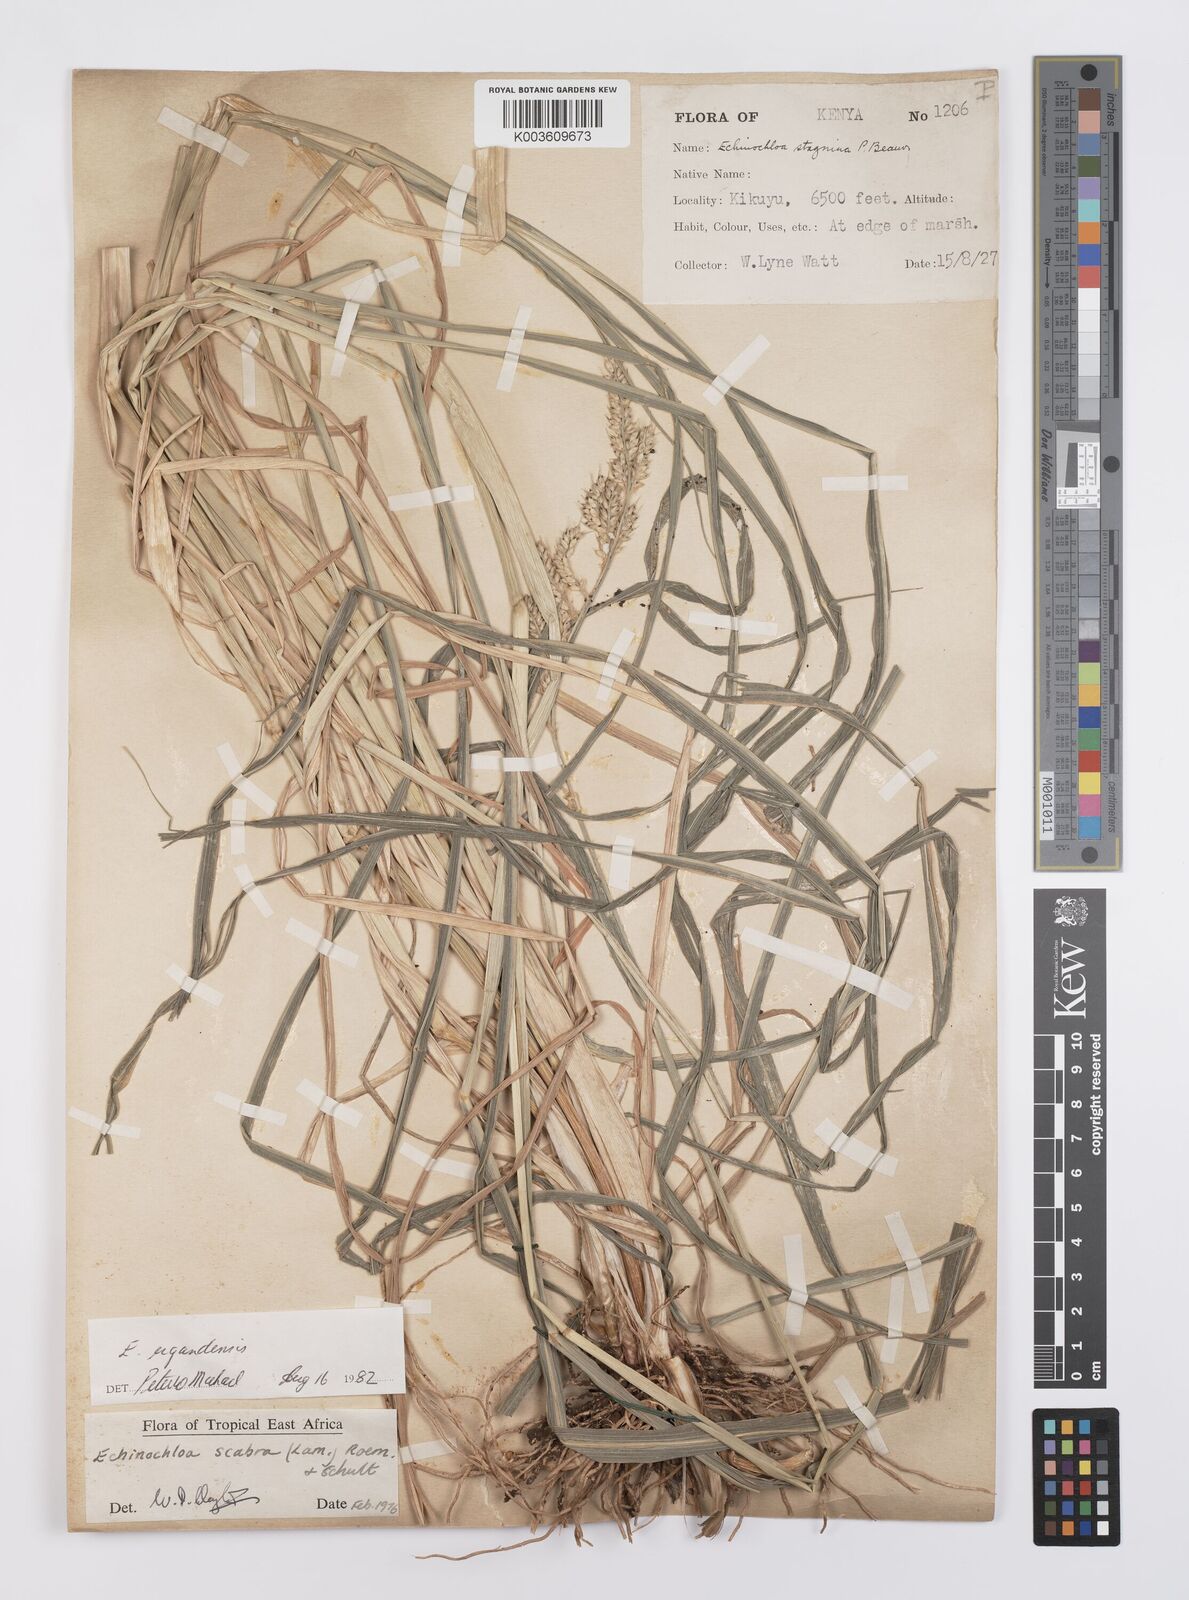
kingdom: Plantae
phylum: Tracheophyta
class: Liliopsida
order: Poales
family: Poaceae
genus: Echinochloa
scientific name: Echinochloa stagnina
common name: Burgu grass
